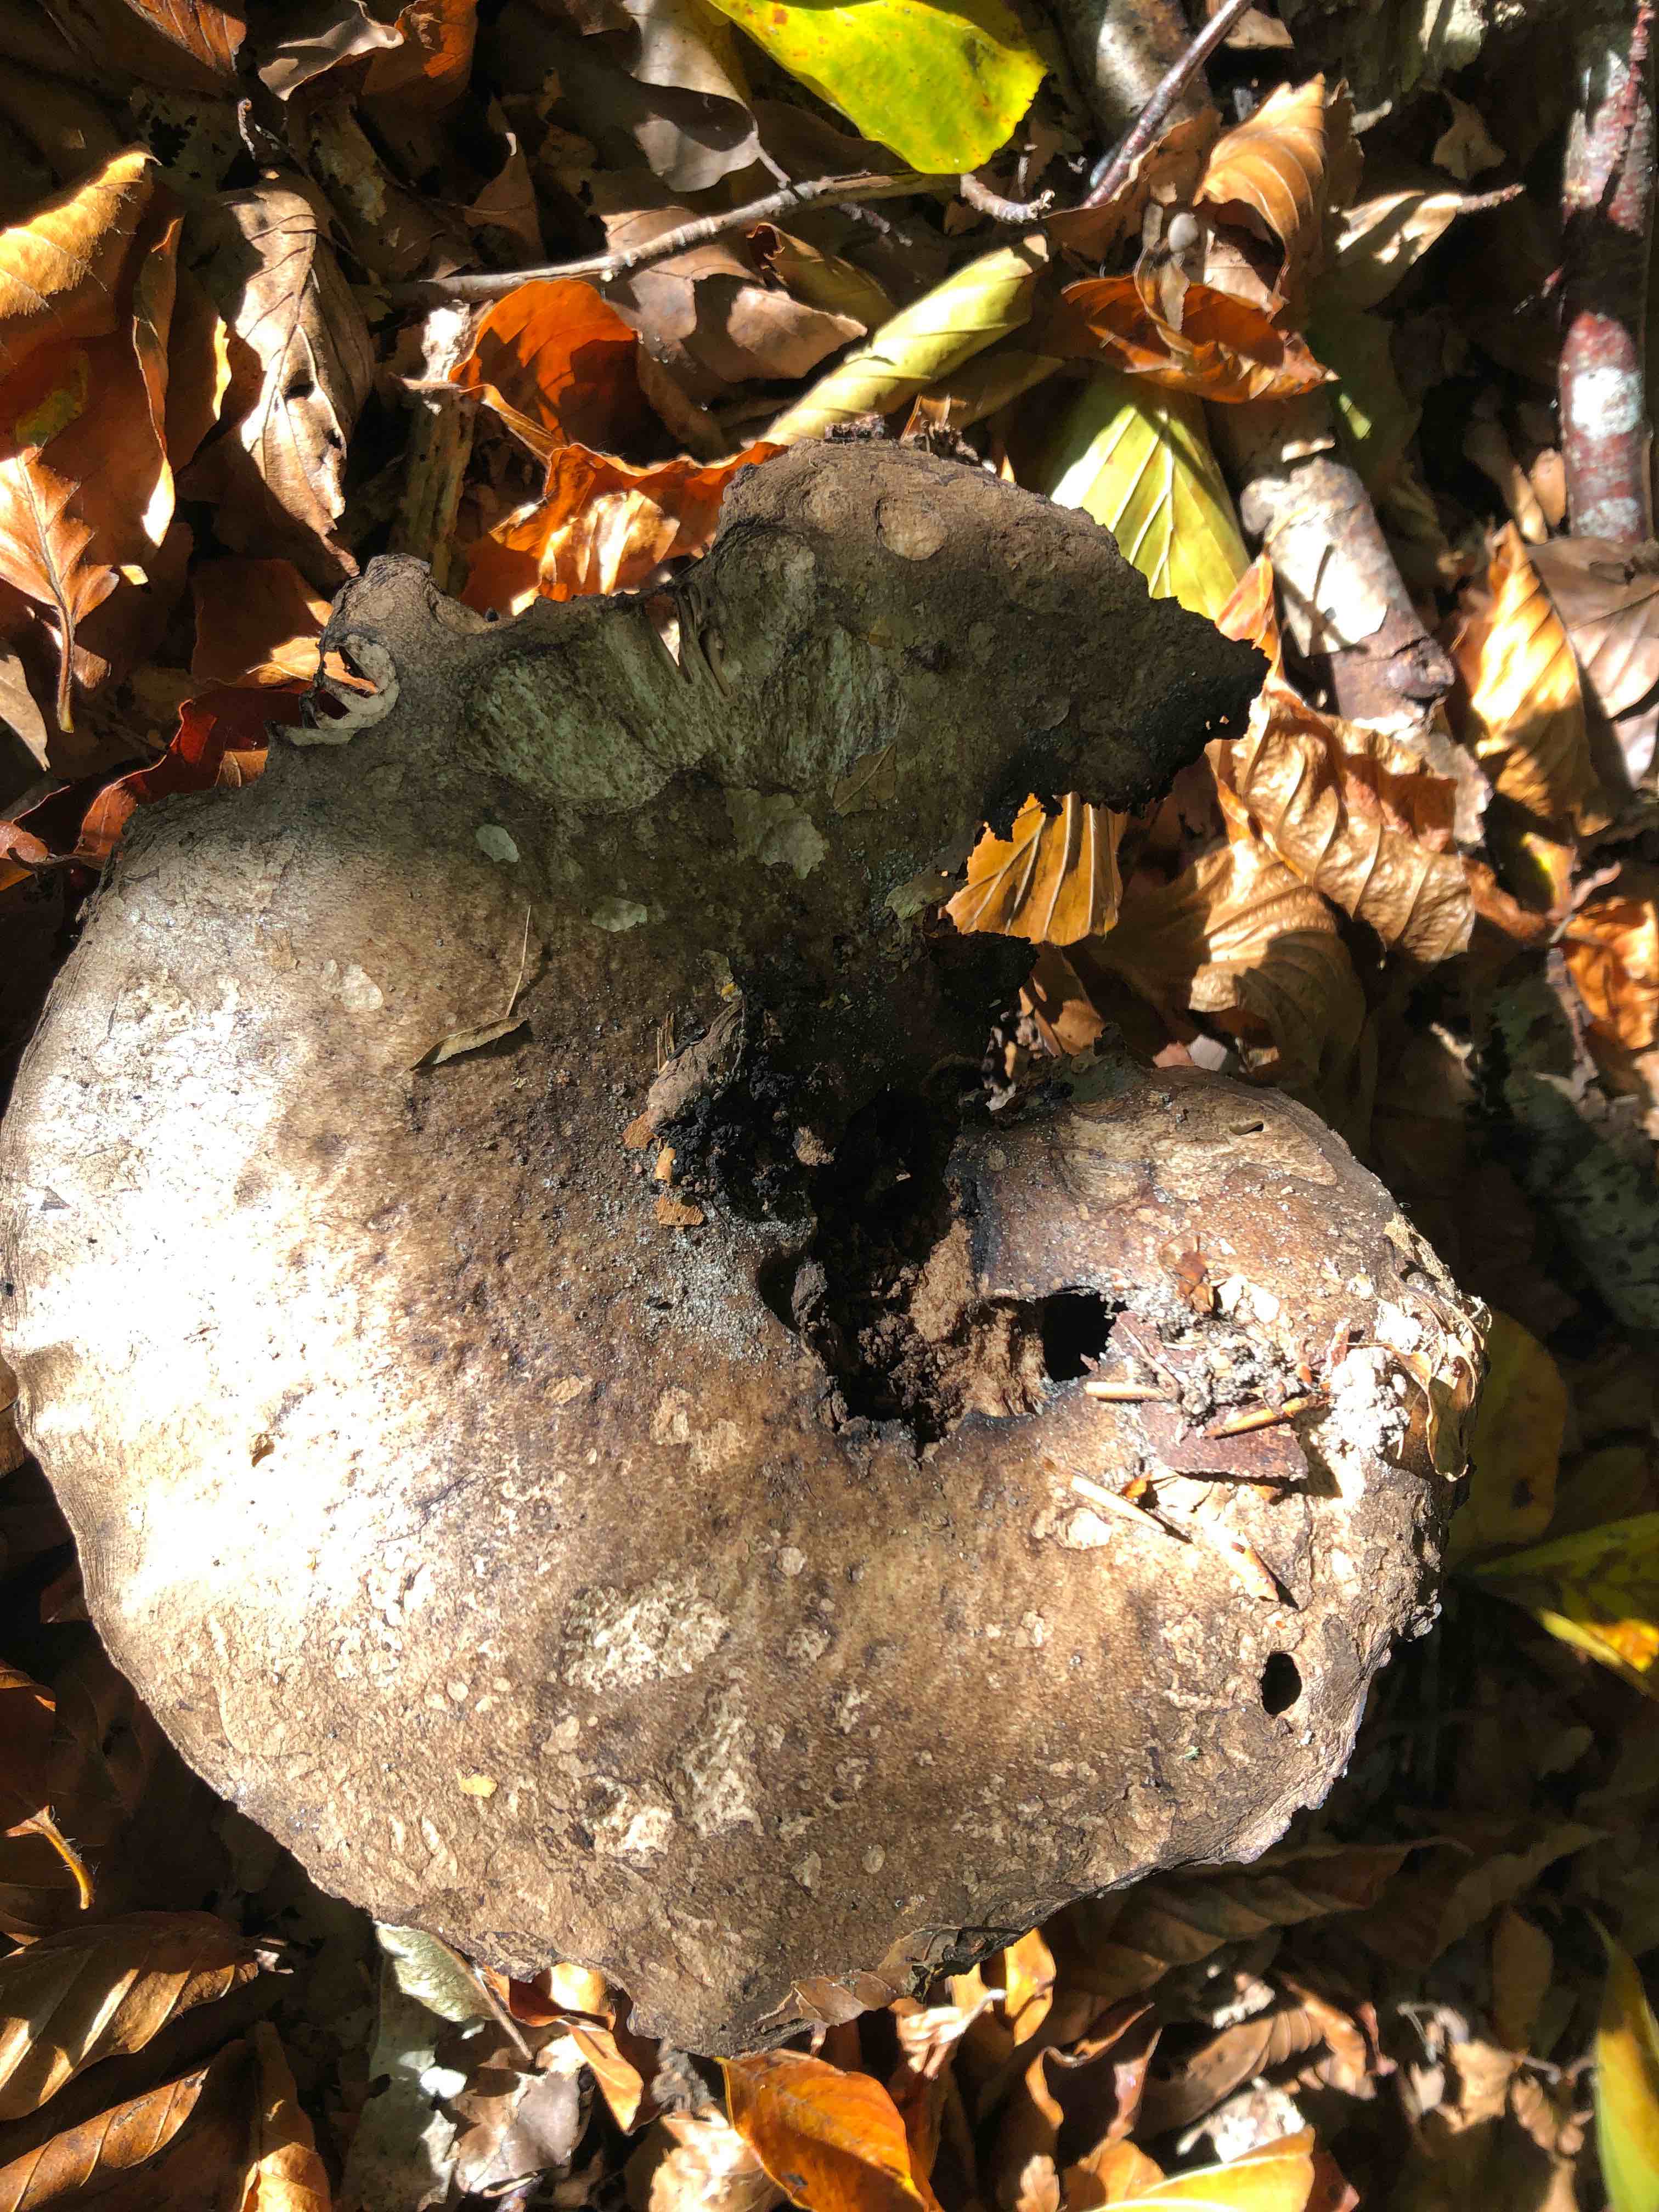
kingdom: Fungi
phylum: Basidiomycota
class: Agaricomycetes
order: Russulales
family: Russulaceae
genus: Russula
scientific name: Russula adusta
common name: sværtende skørhat
